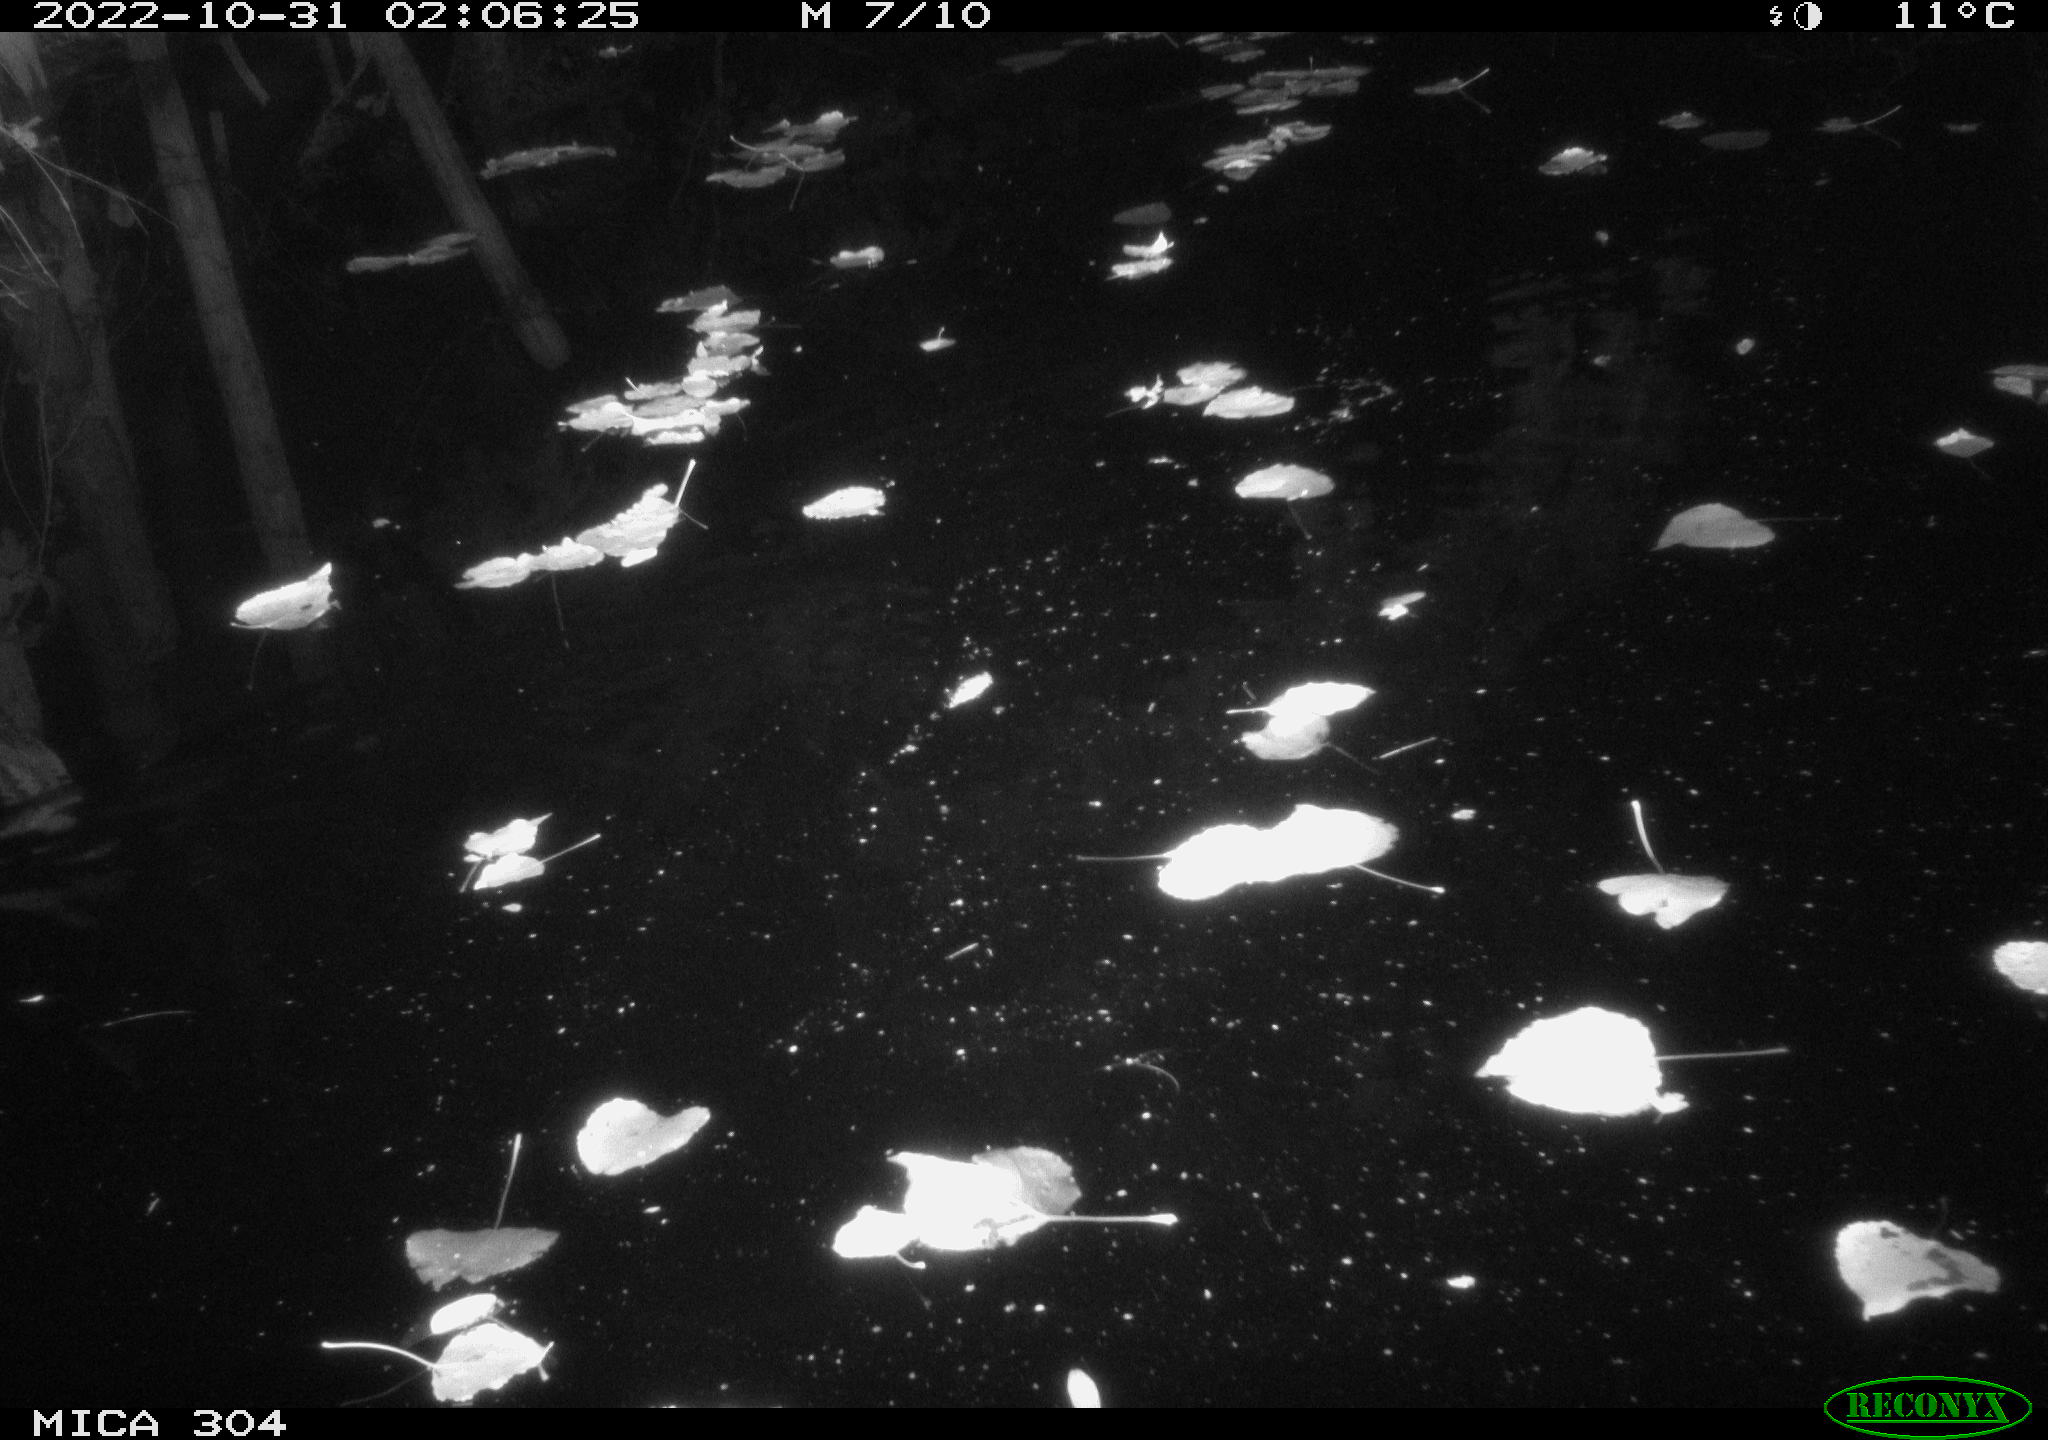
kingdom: Animalia
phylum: Chordata
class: Mammalia
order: Rodentia
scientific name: Rodentia
